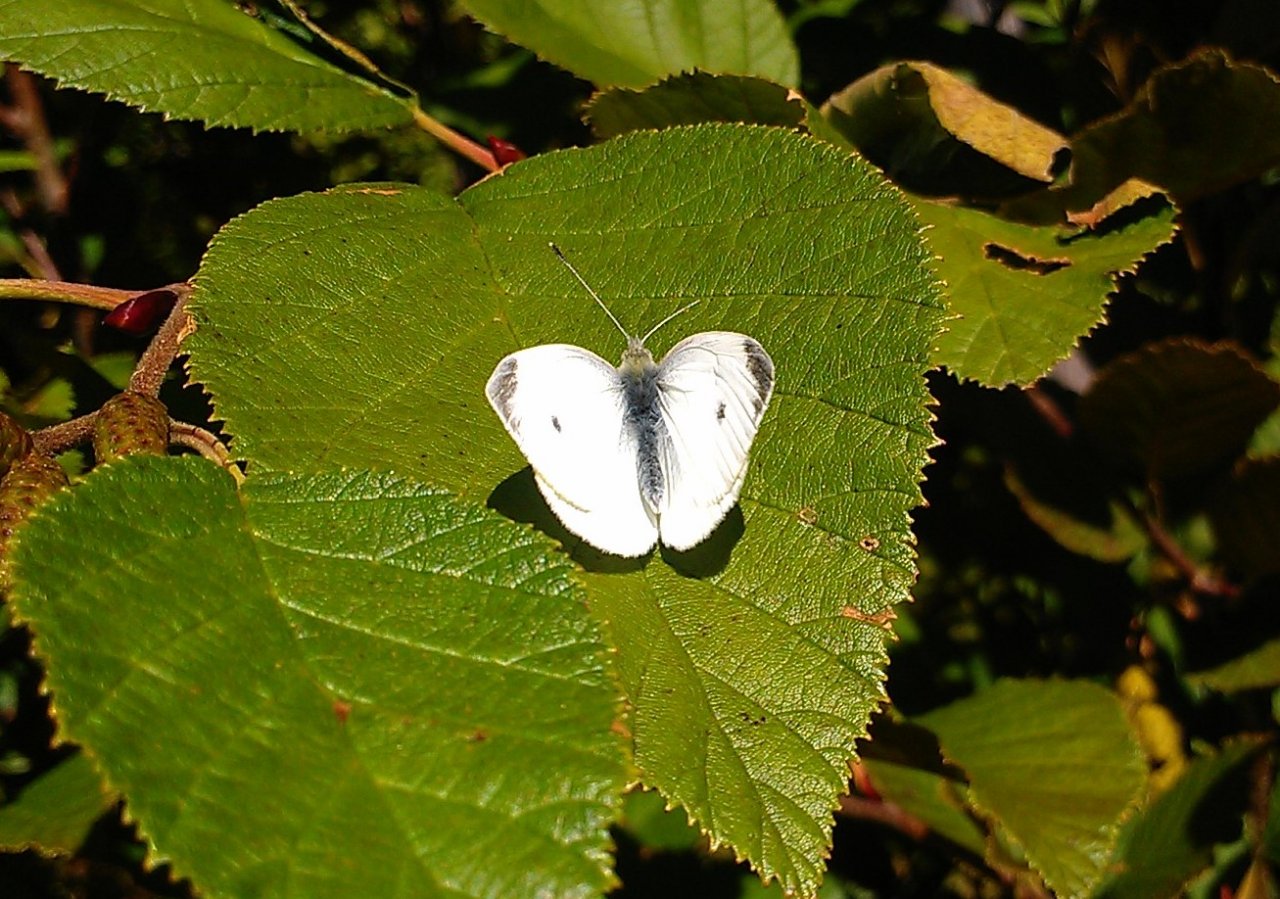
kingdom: Animalia
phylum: Arthropoda
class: Insecta
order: Lepidoptera
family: Pieridae
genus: Pieris
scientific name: Pieris rapae
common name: Cabbage White
